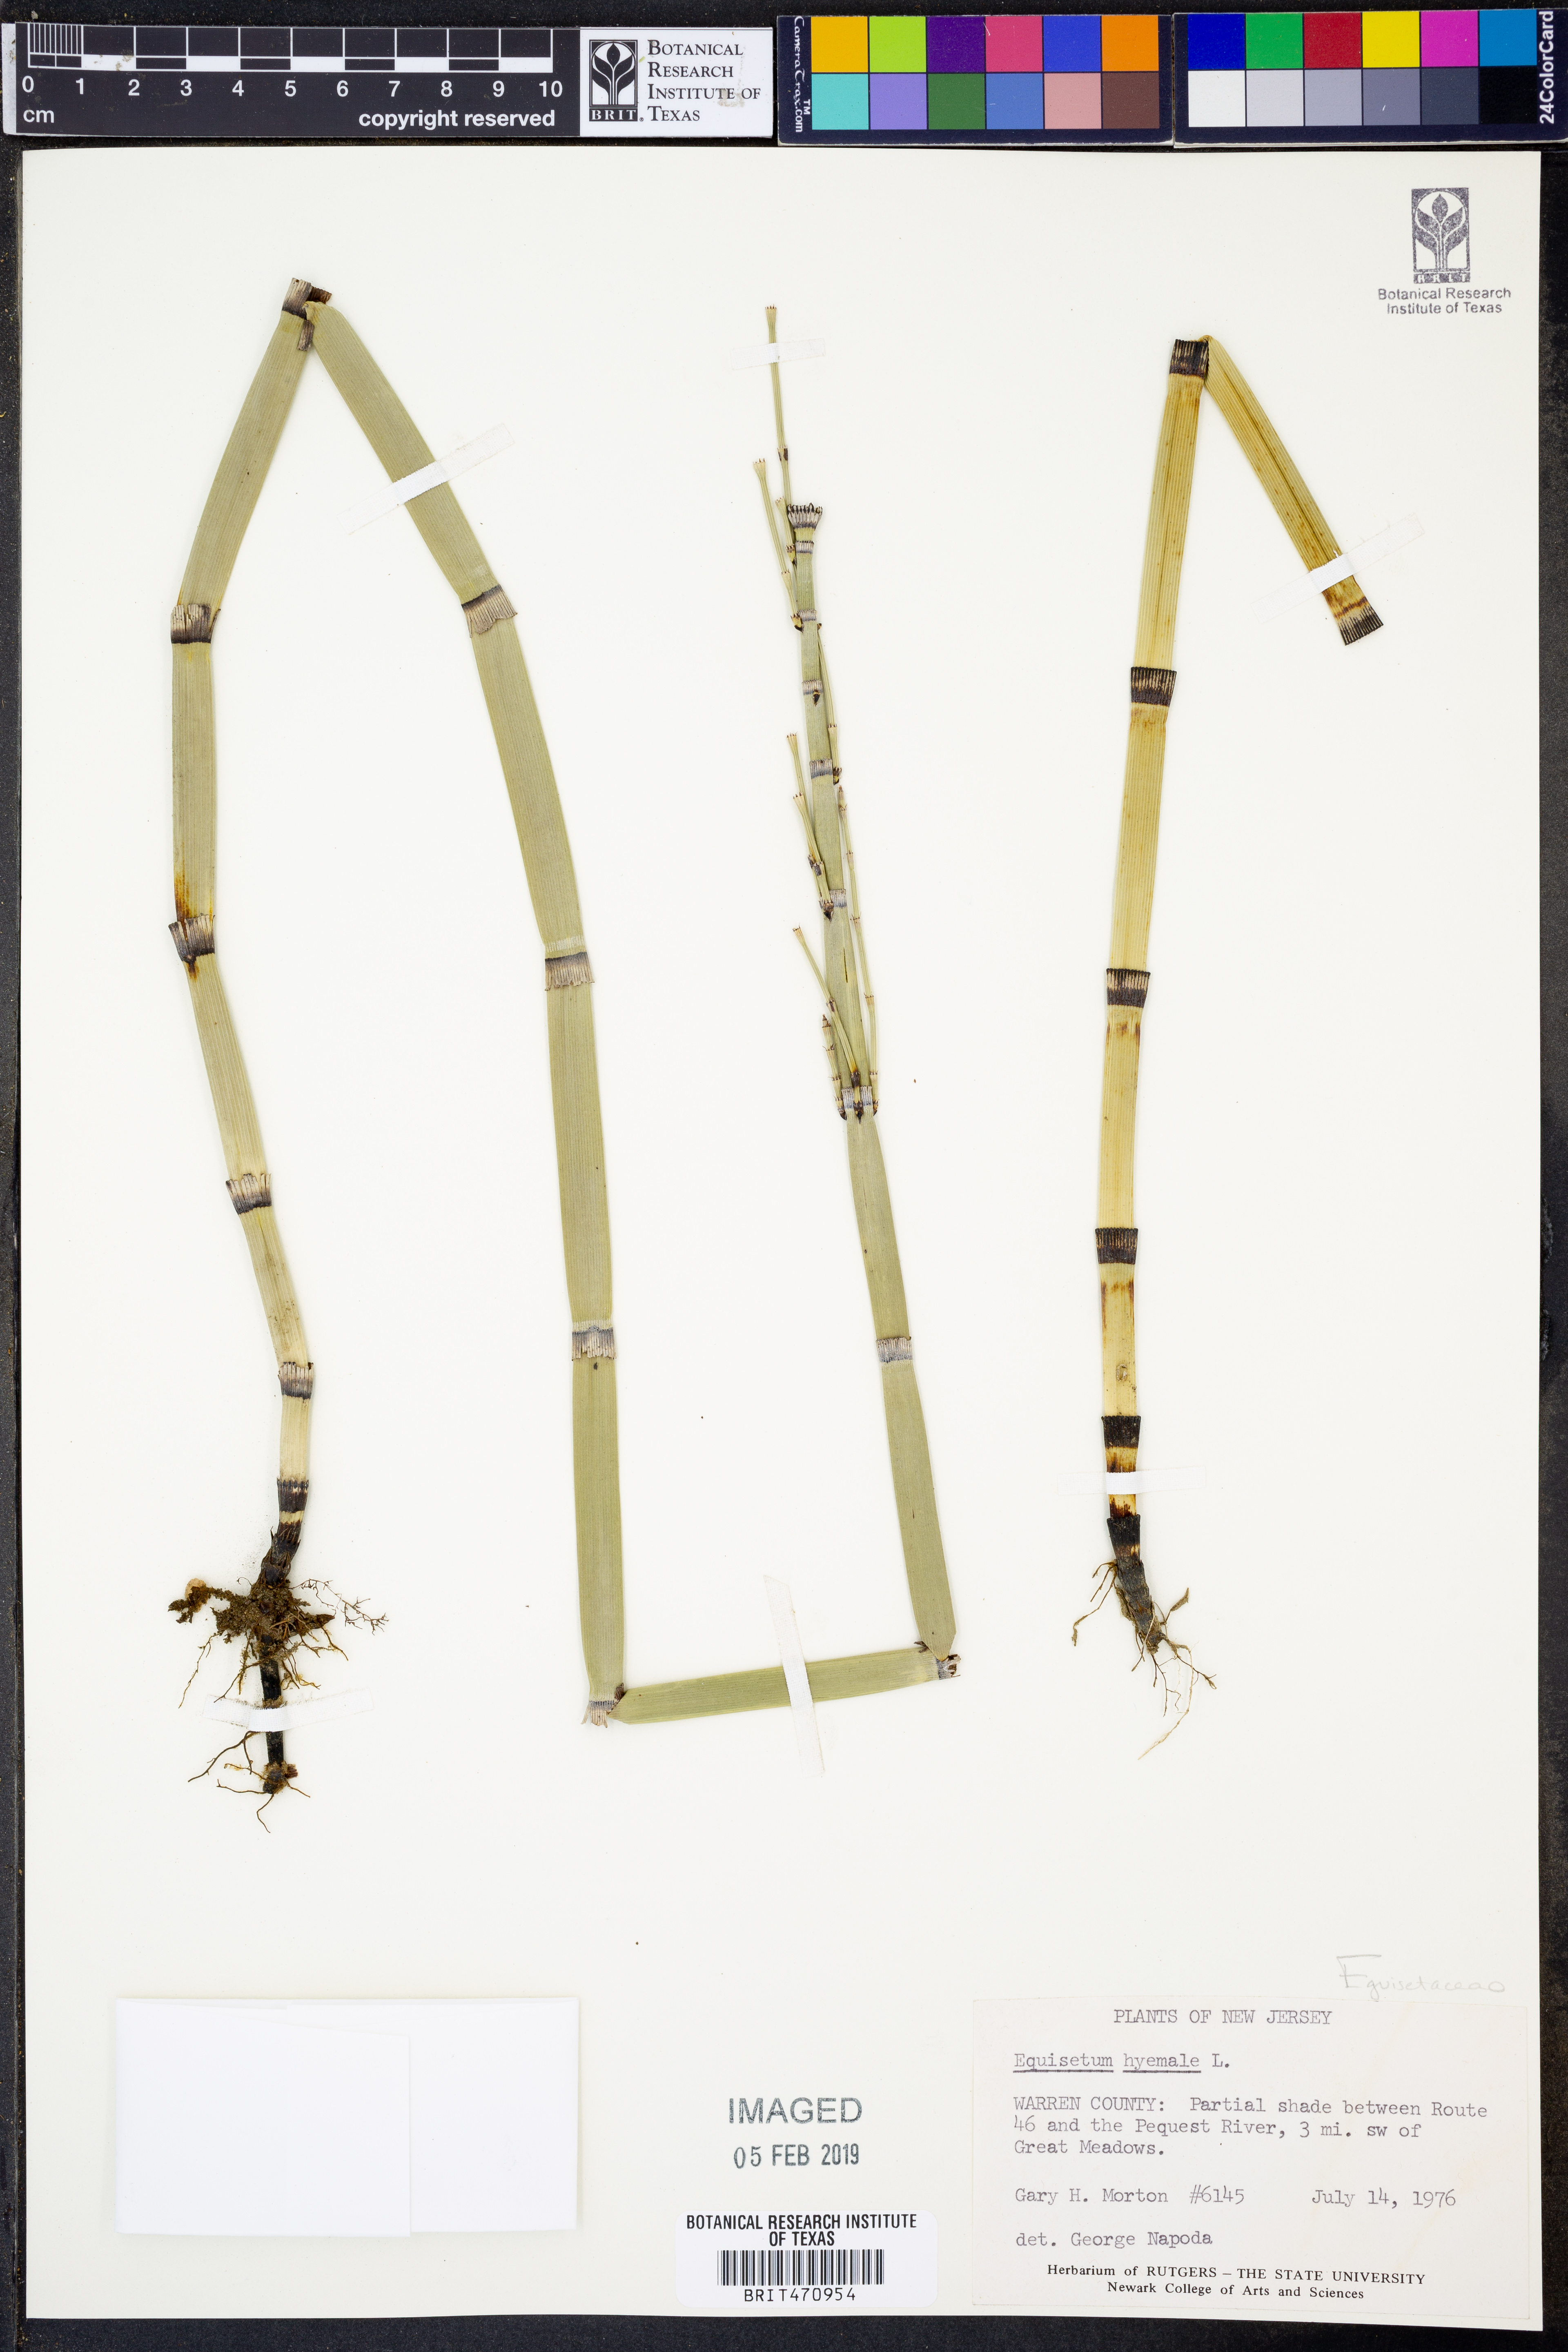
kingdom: Plantae
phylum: Tracheophyta
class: Polypodiopsida
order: Equisetales
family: Equisetaceae
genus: Equisetum
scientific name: Equisetum hyemale
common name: Rough horsetail
